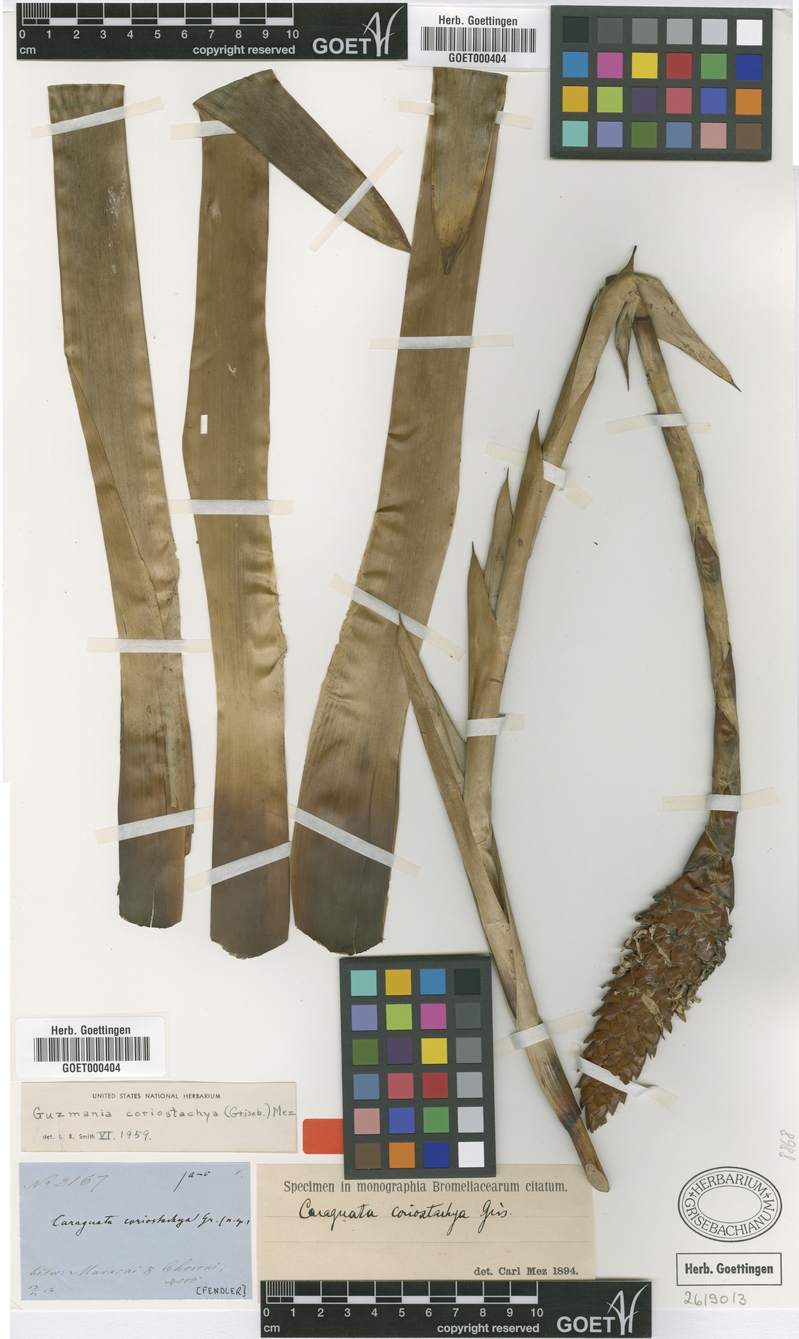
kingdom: Plantae
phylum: Tracheophyta
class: Liliopsida
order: Poales
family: Bromeliaceae
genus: Guzmania
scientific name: Guzmania coriostachya
